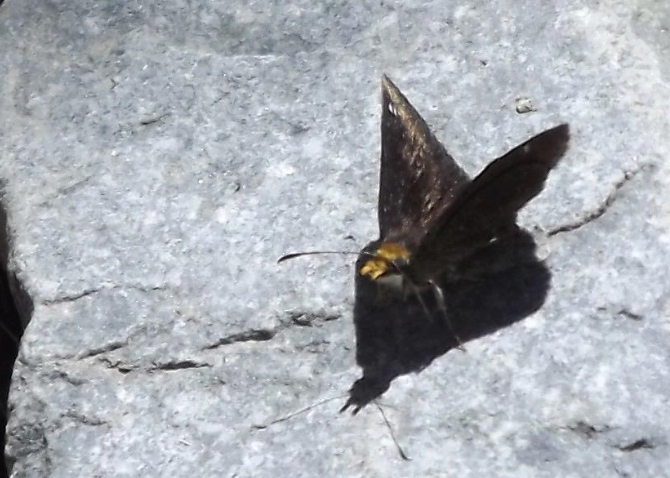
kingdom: Animalia
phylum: Arthropoda
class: Insecta
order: Lepidoptera
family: Hesperiidae
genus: Staphylus
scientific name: Staphylus ceos
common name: Golden-headed Scallopwing
